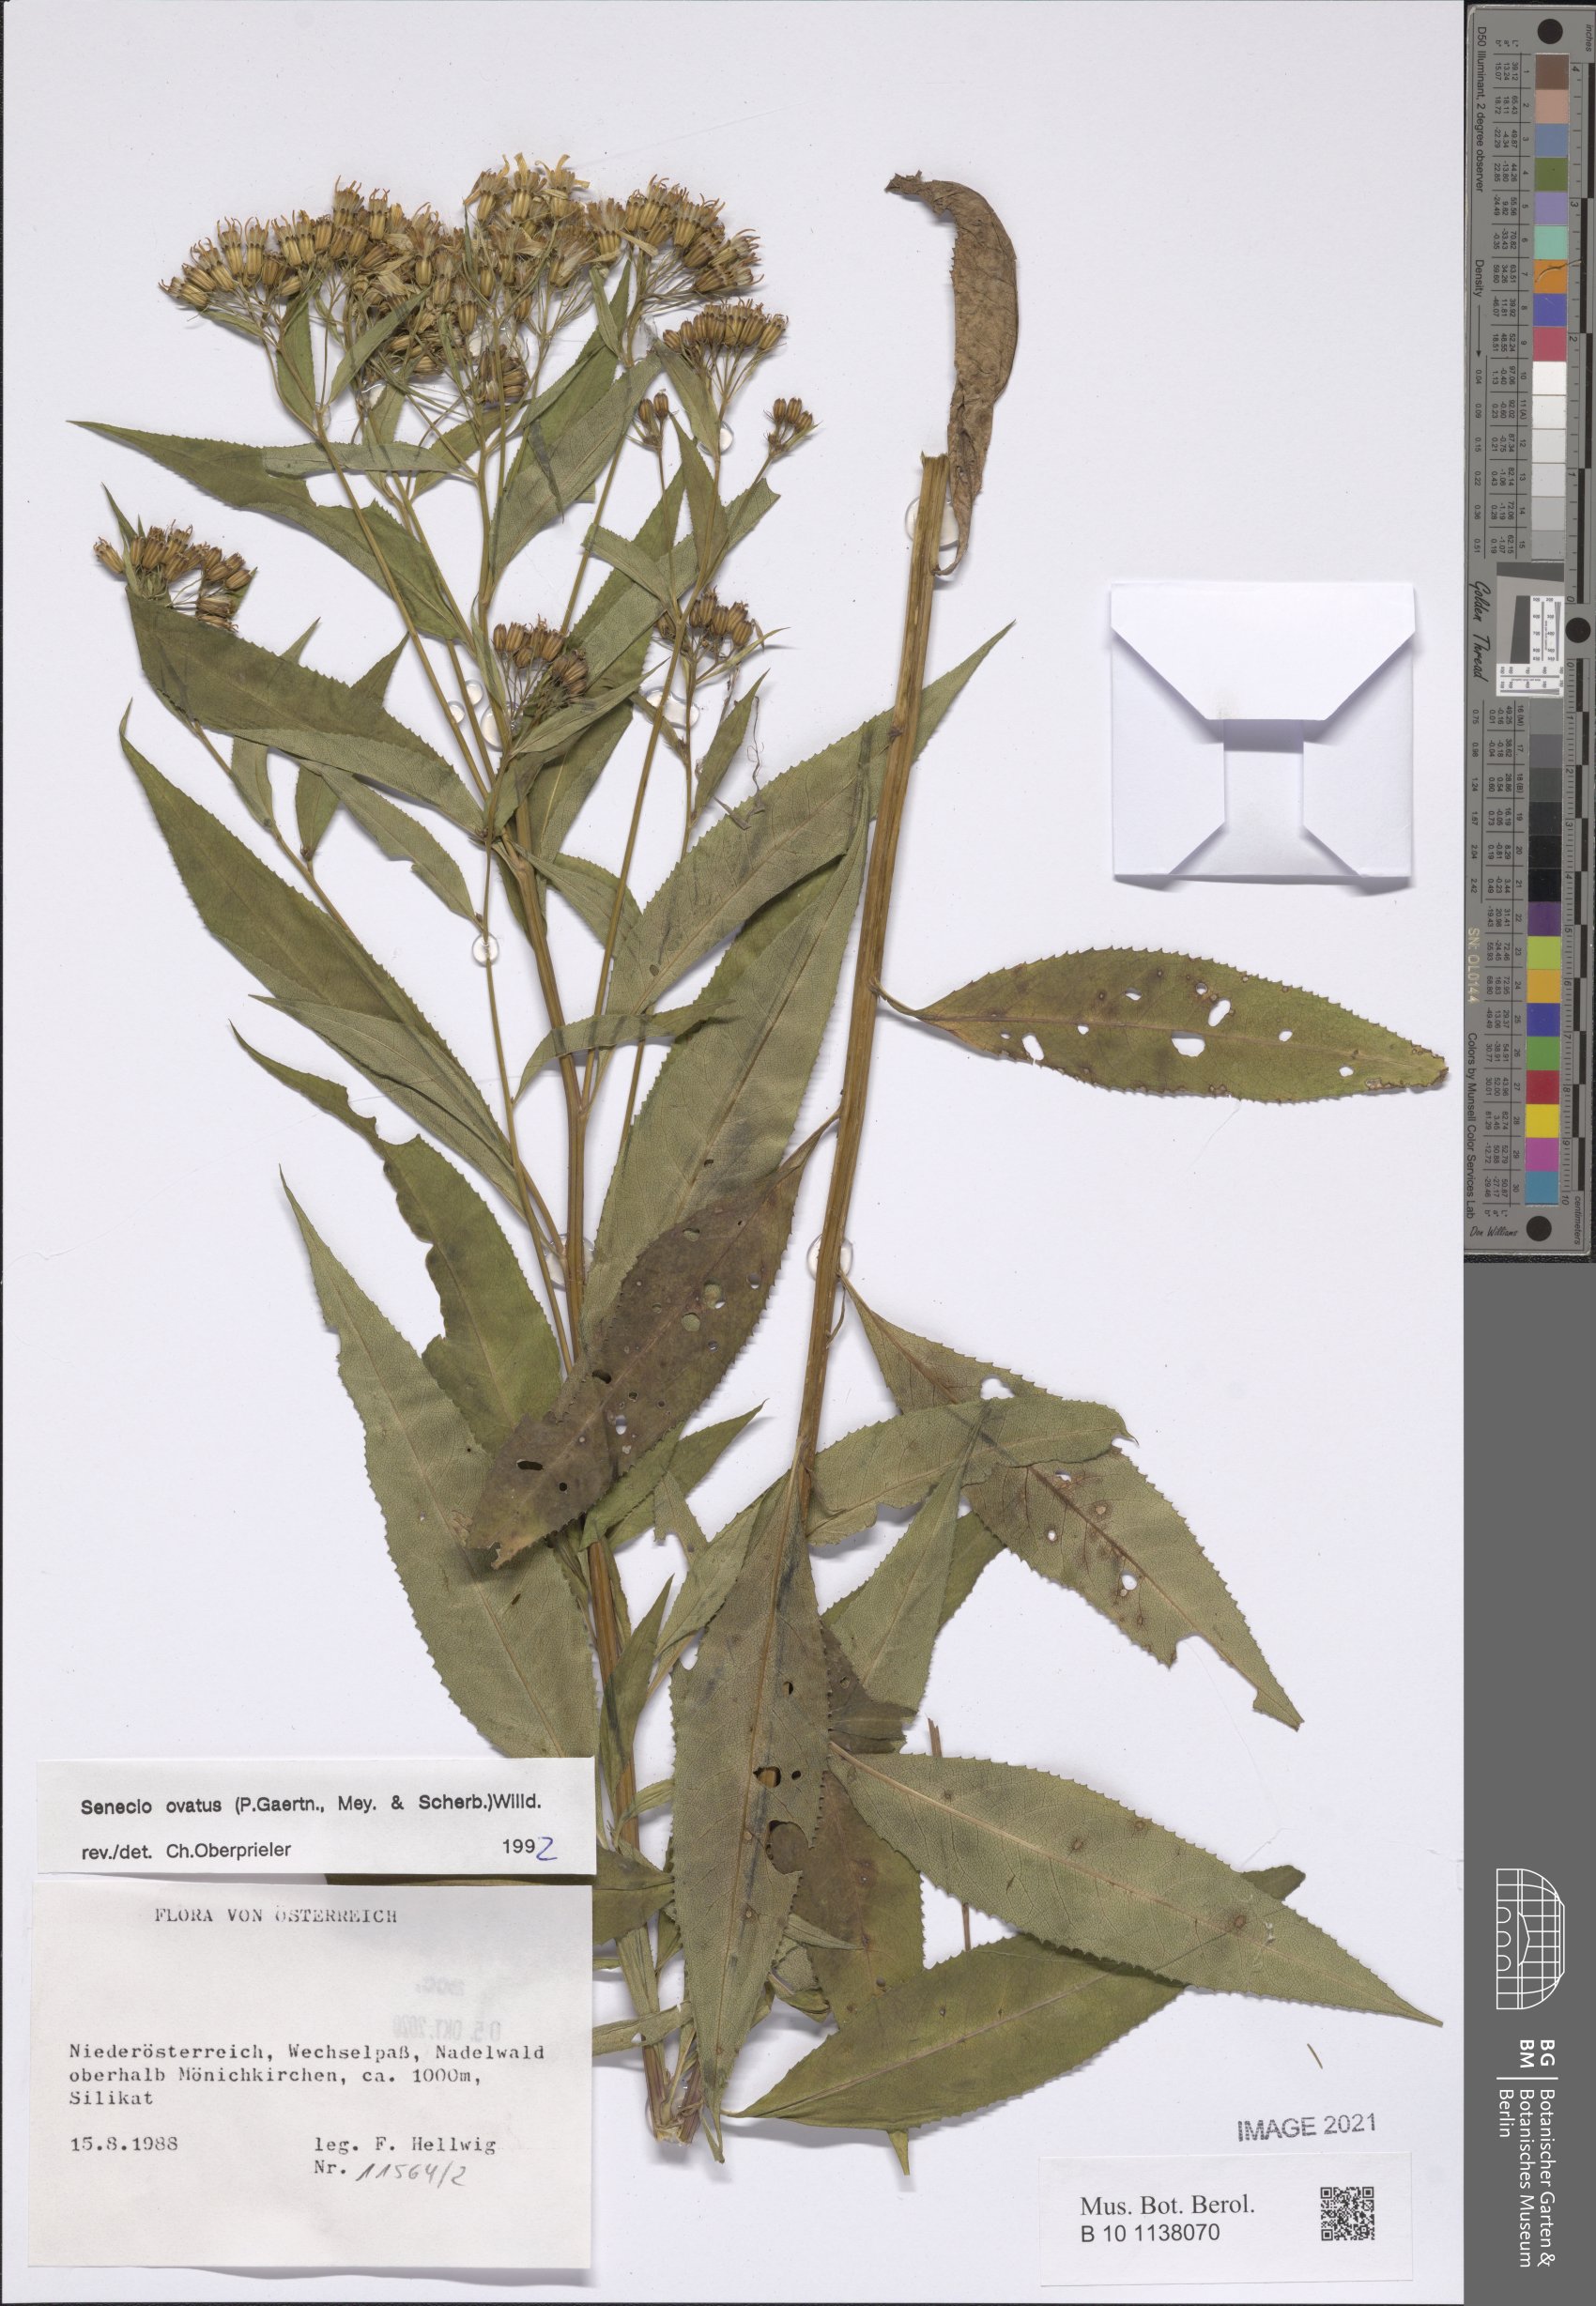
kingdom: Plantae
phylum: Tracheophyta
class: Magnoliopsida
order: Asterales
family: Asteraceae
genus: Senecio
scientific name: Senecio ovatus
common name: Wood ragwort
